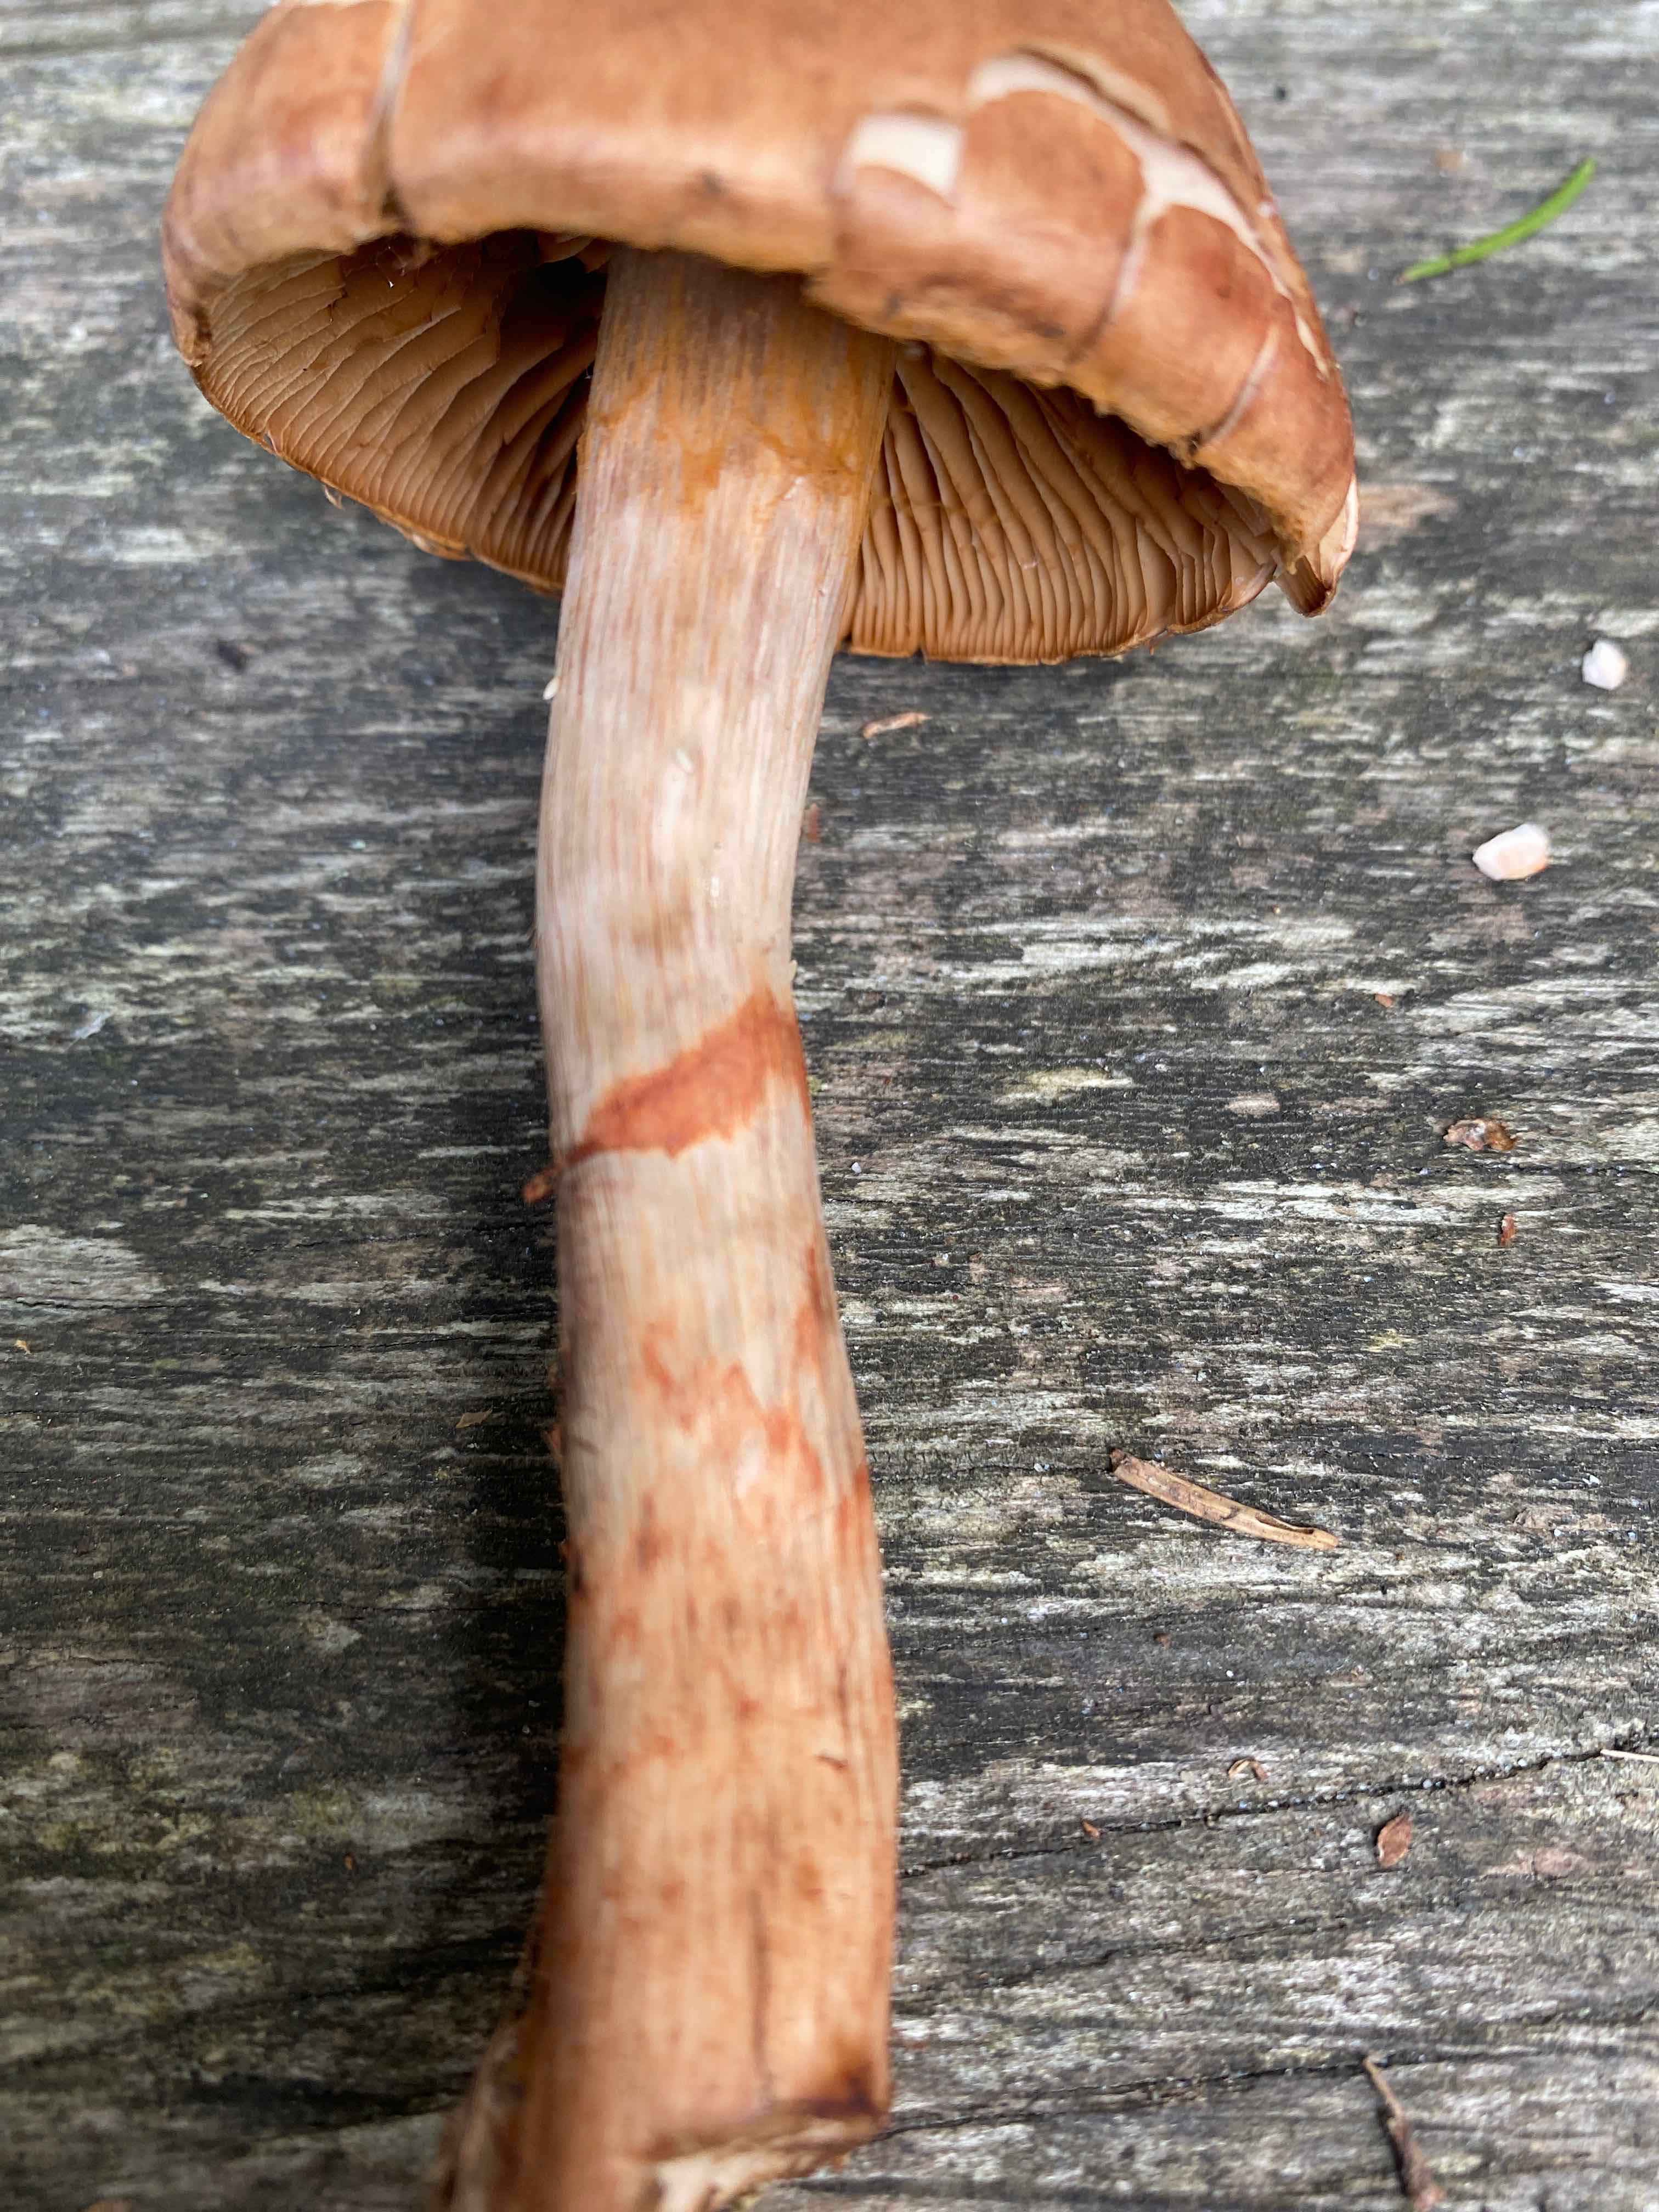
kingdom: Fungi
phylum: Basidiomycota
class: Agaricomycetes
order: Agaricales
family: Cortinariaceae
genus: Cortinarius
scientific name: Cortinarius armillatus
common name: cinnoberbæltet slørhat
